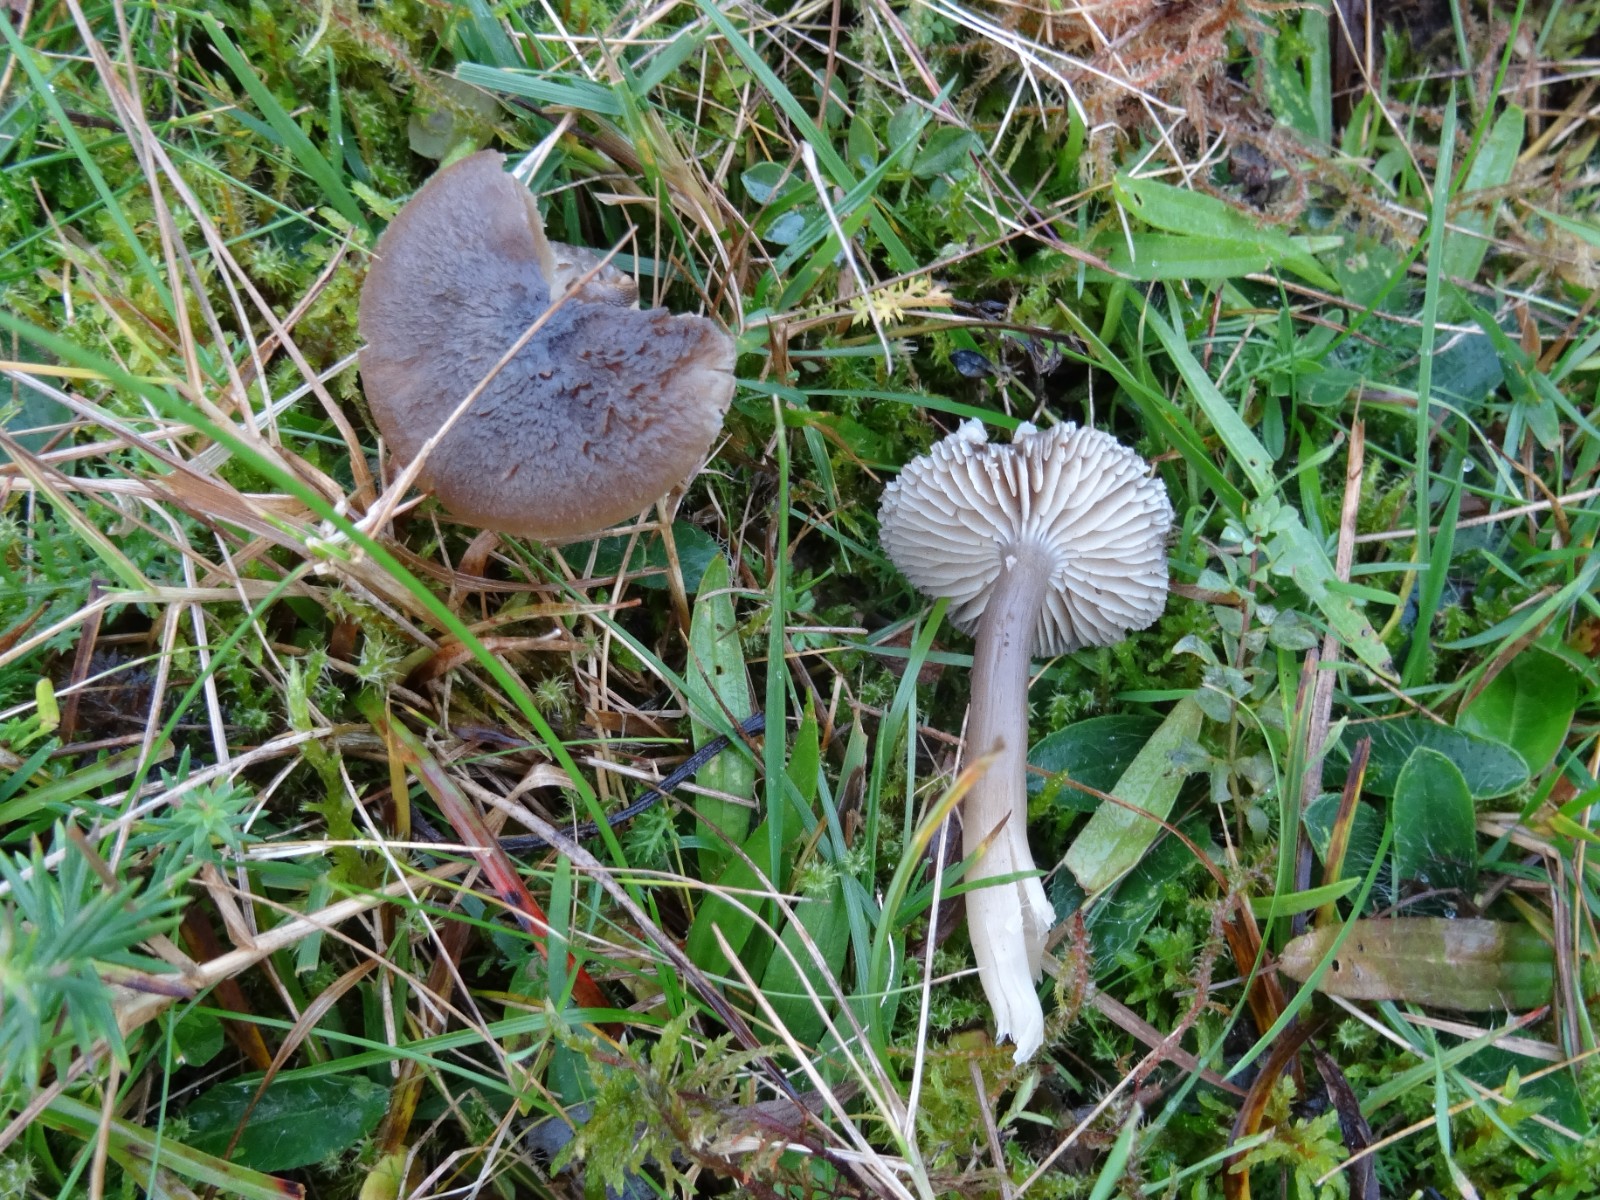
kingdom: Fungi
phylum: Basidiomycota
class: Agaricomycetes
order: Agaricales
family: Hygrophoraceae
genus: Neohygrocybe
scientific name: Neohygrocybe nitrata
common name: stinkende vokshat
